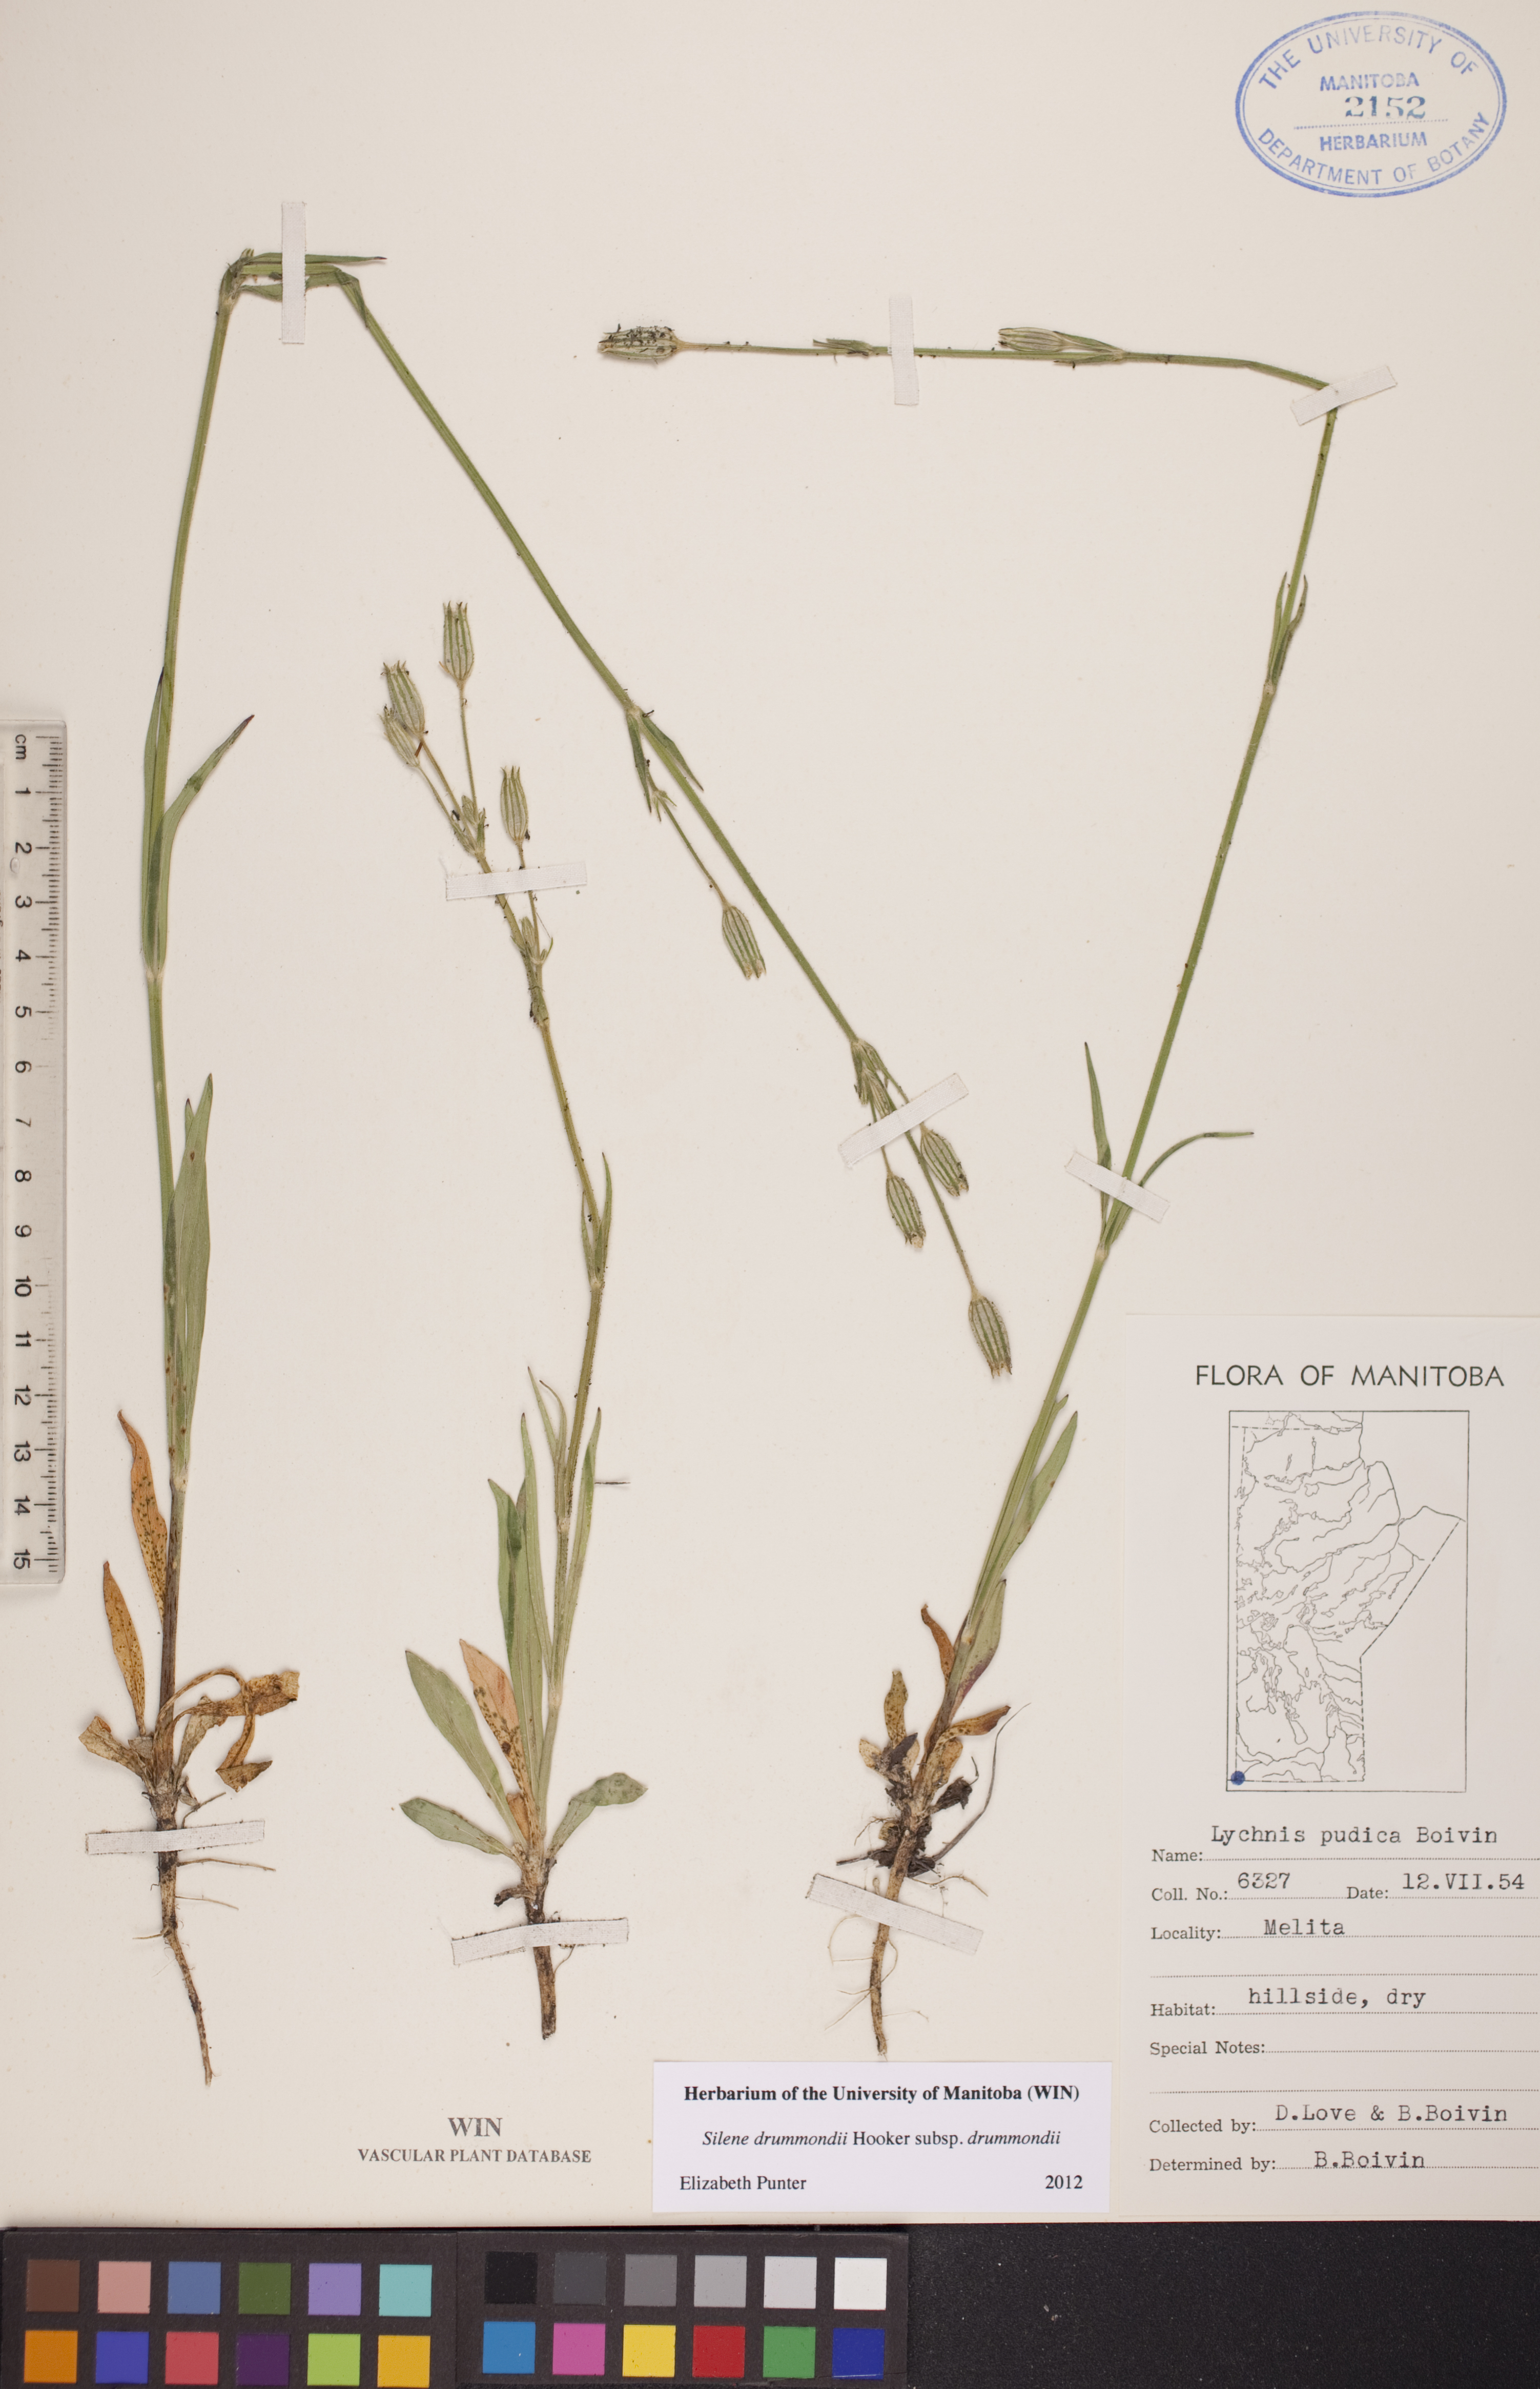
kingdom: Plantae
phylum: Tracheophyta
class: Magnoliopsida
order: Caryophyllales
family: Caryophyllaceae
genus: Silene
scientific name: Silene drummondii
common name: Drummond's catchfly
